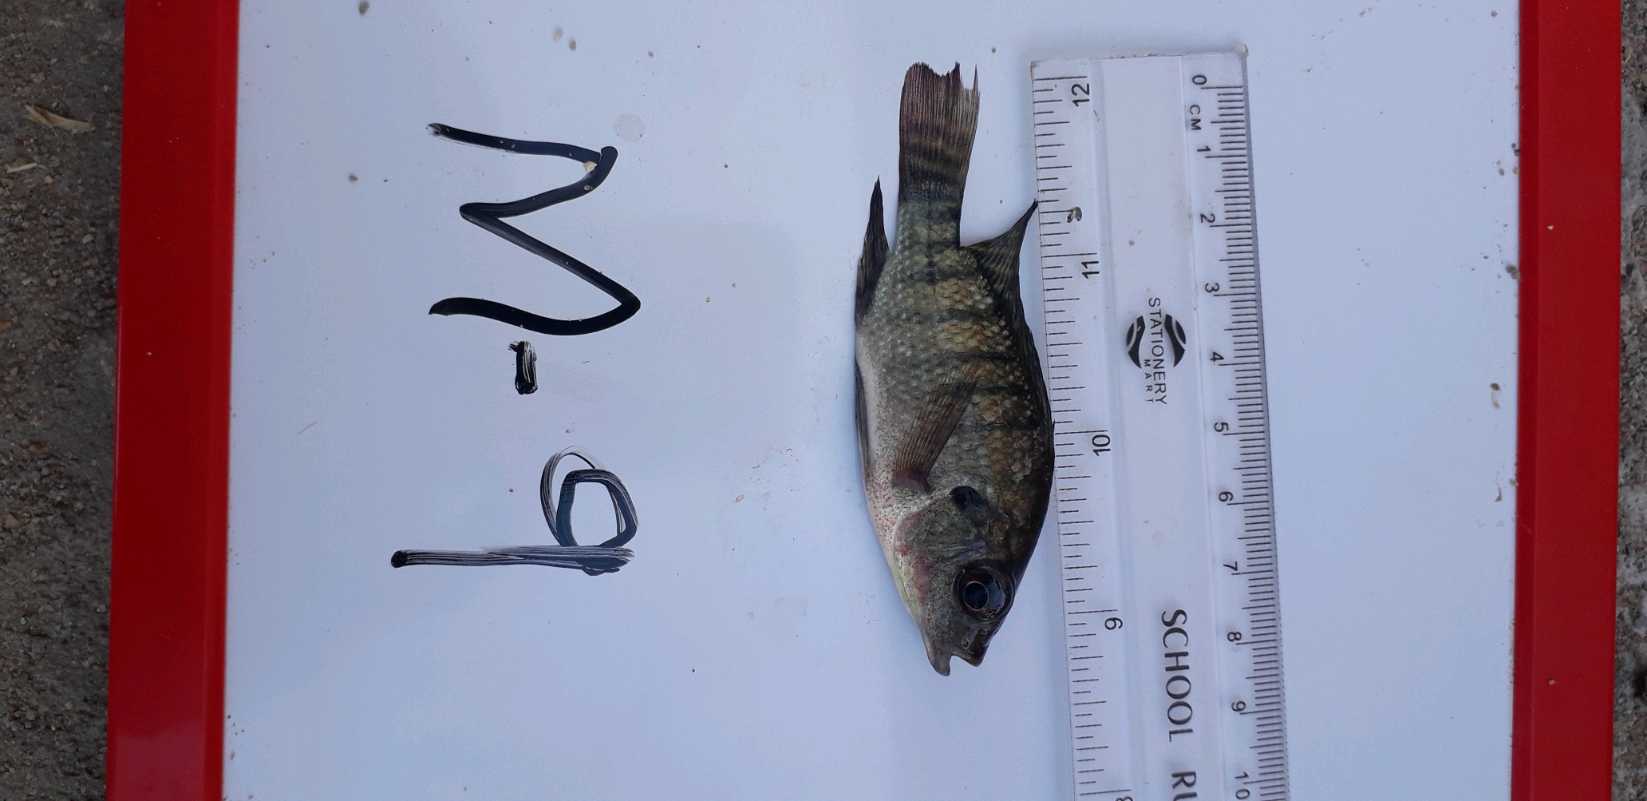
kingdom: Animalia
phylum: Chordata
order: Perciformes
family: Cichlidae
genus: Oreochromis
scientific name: Oreochromis niloticus
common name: Nile tilapia
